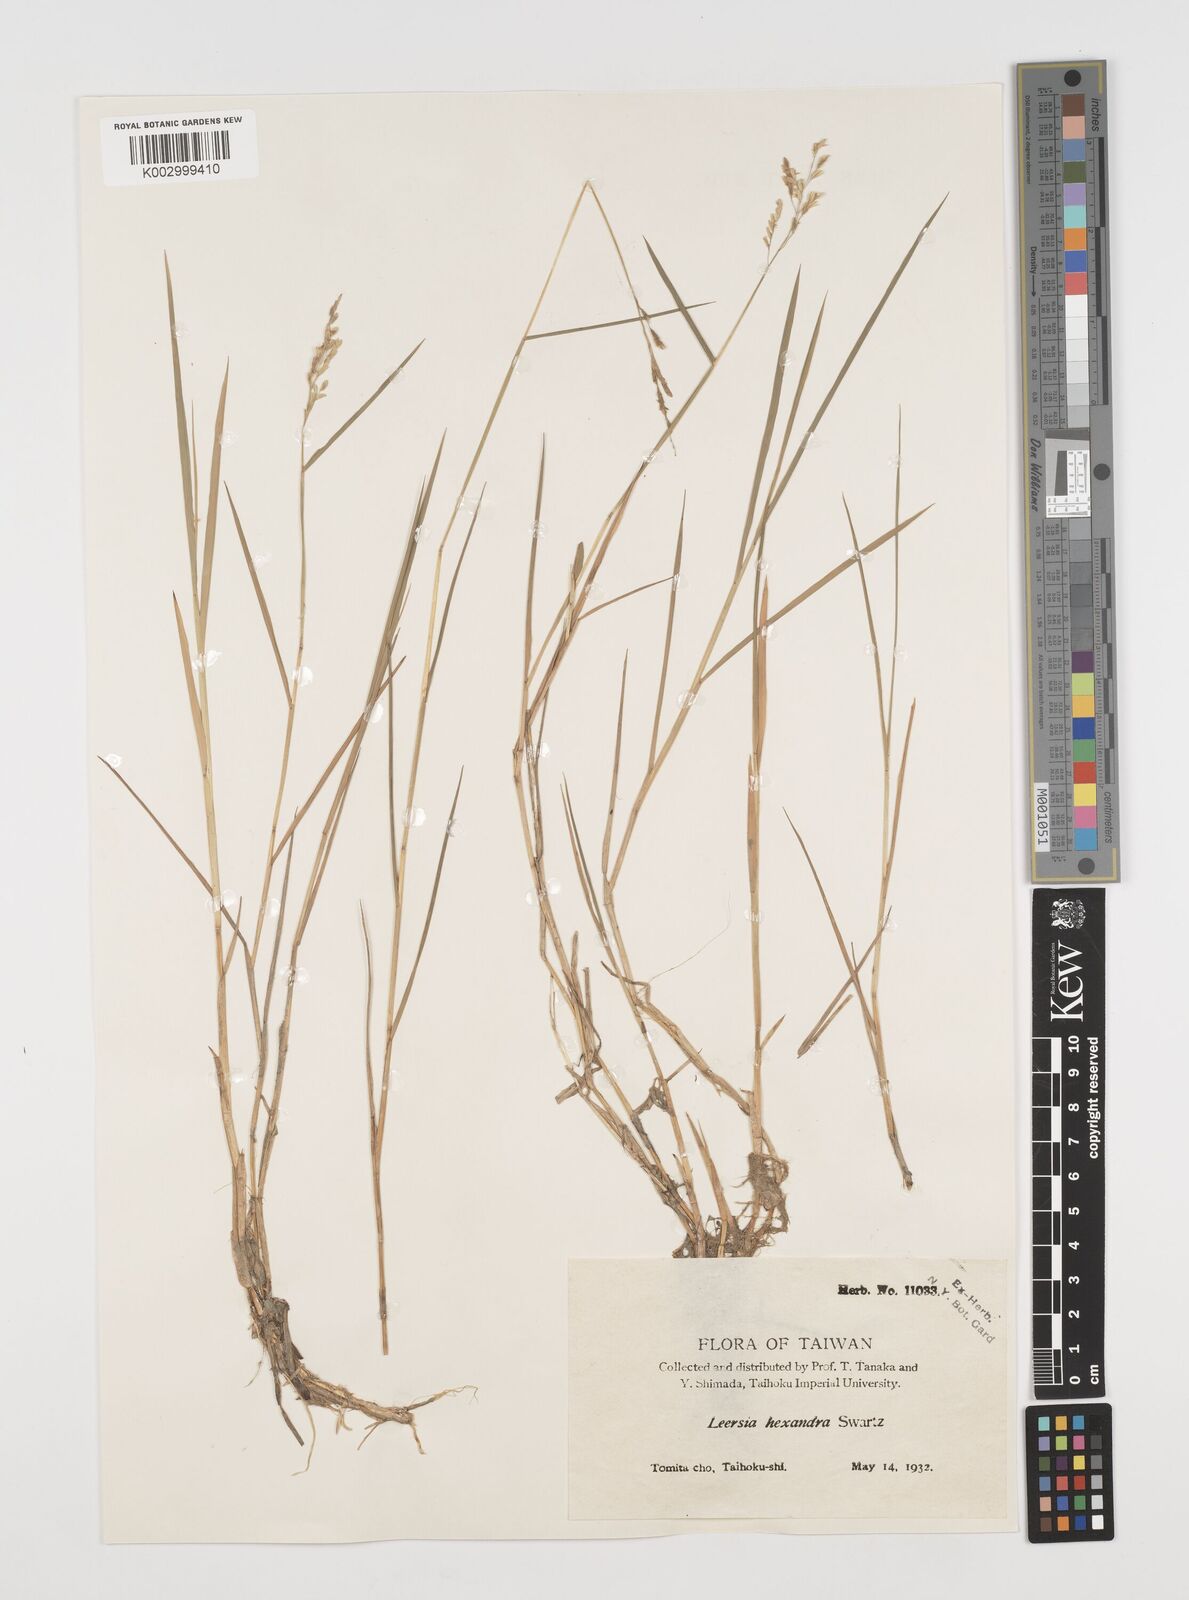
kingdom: Plantae
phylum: Tracheophyta
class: Liliopsida
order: Poales
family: Poaceae
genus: Leersia
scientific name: Leersia hexandra
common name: Southern cut grass
